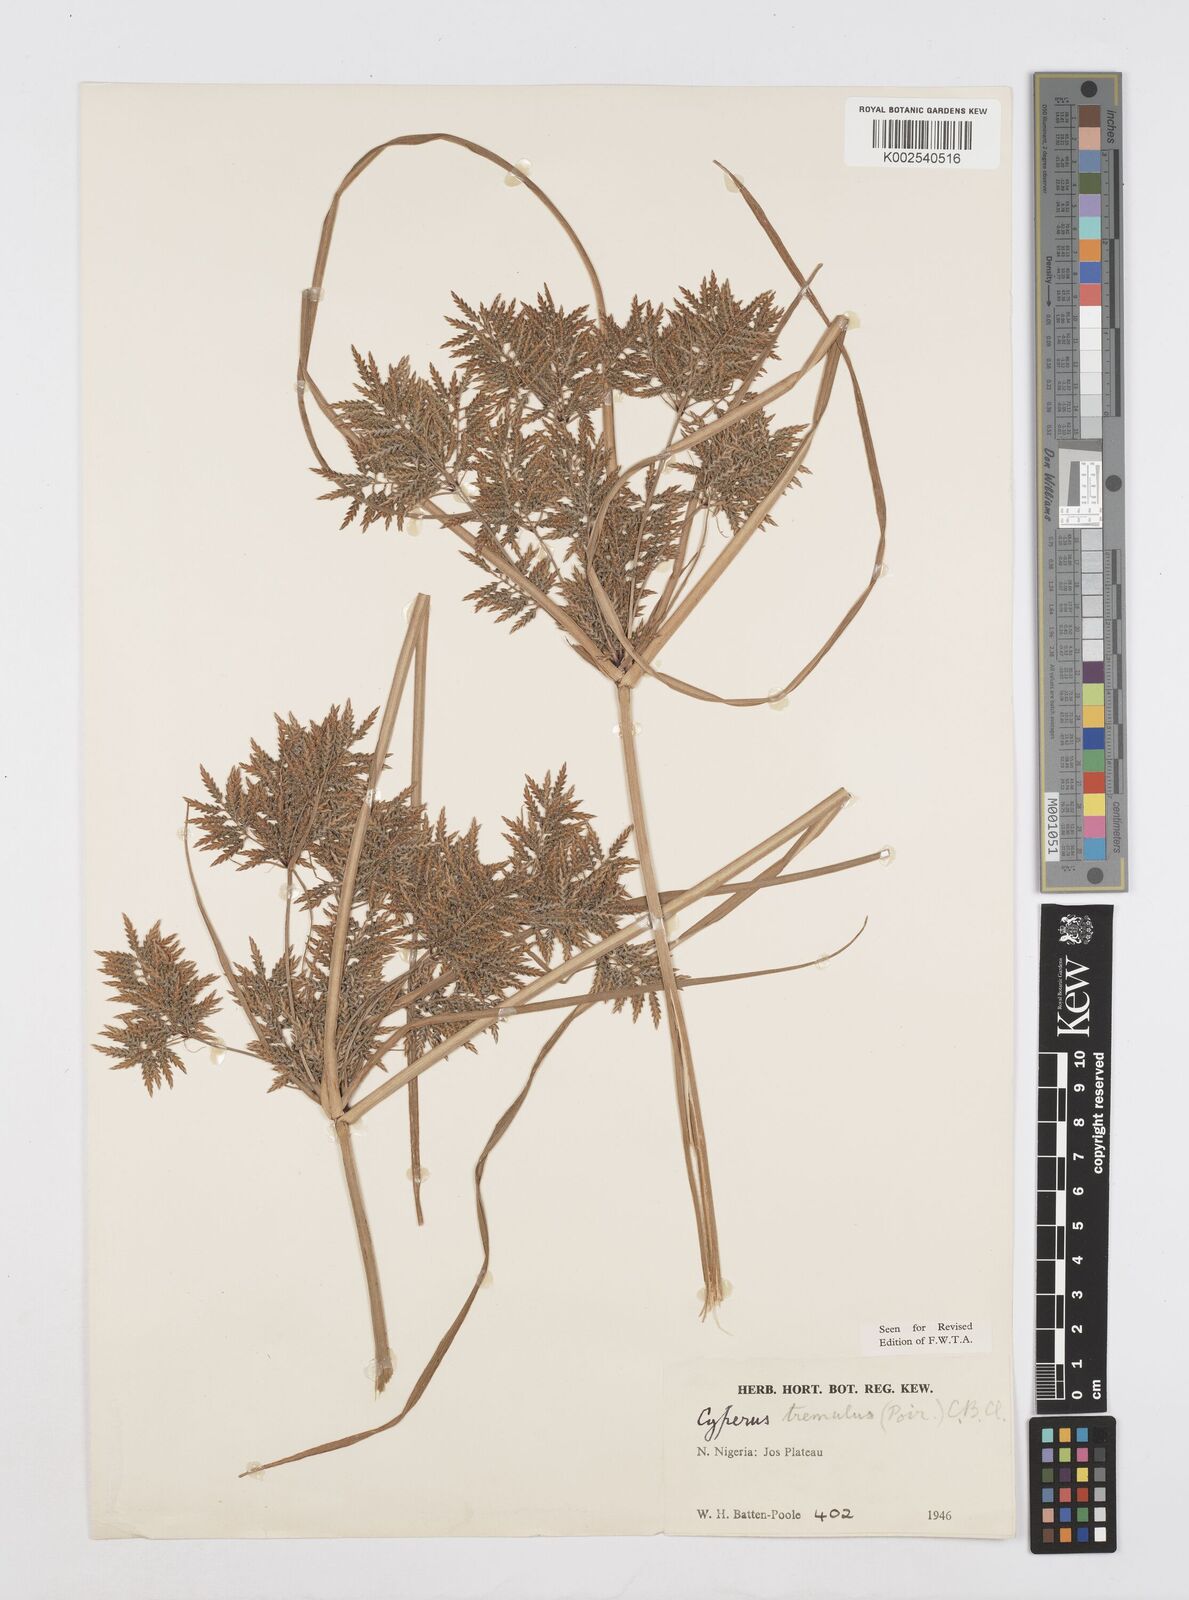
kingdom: Plantae
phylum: Tracheophyta
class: Liliopsida
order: Poales
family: Cyperaceae
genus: Cyperus
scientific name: Cyperus macrostachyos
